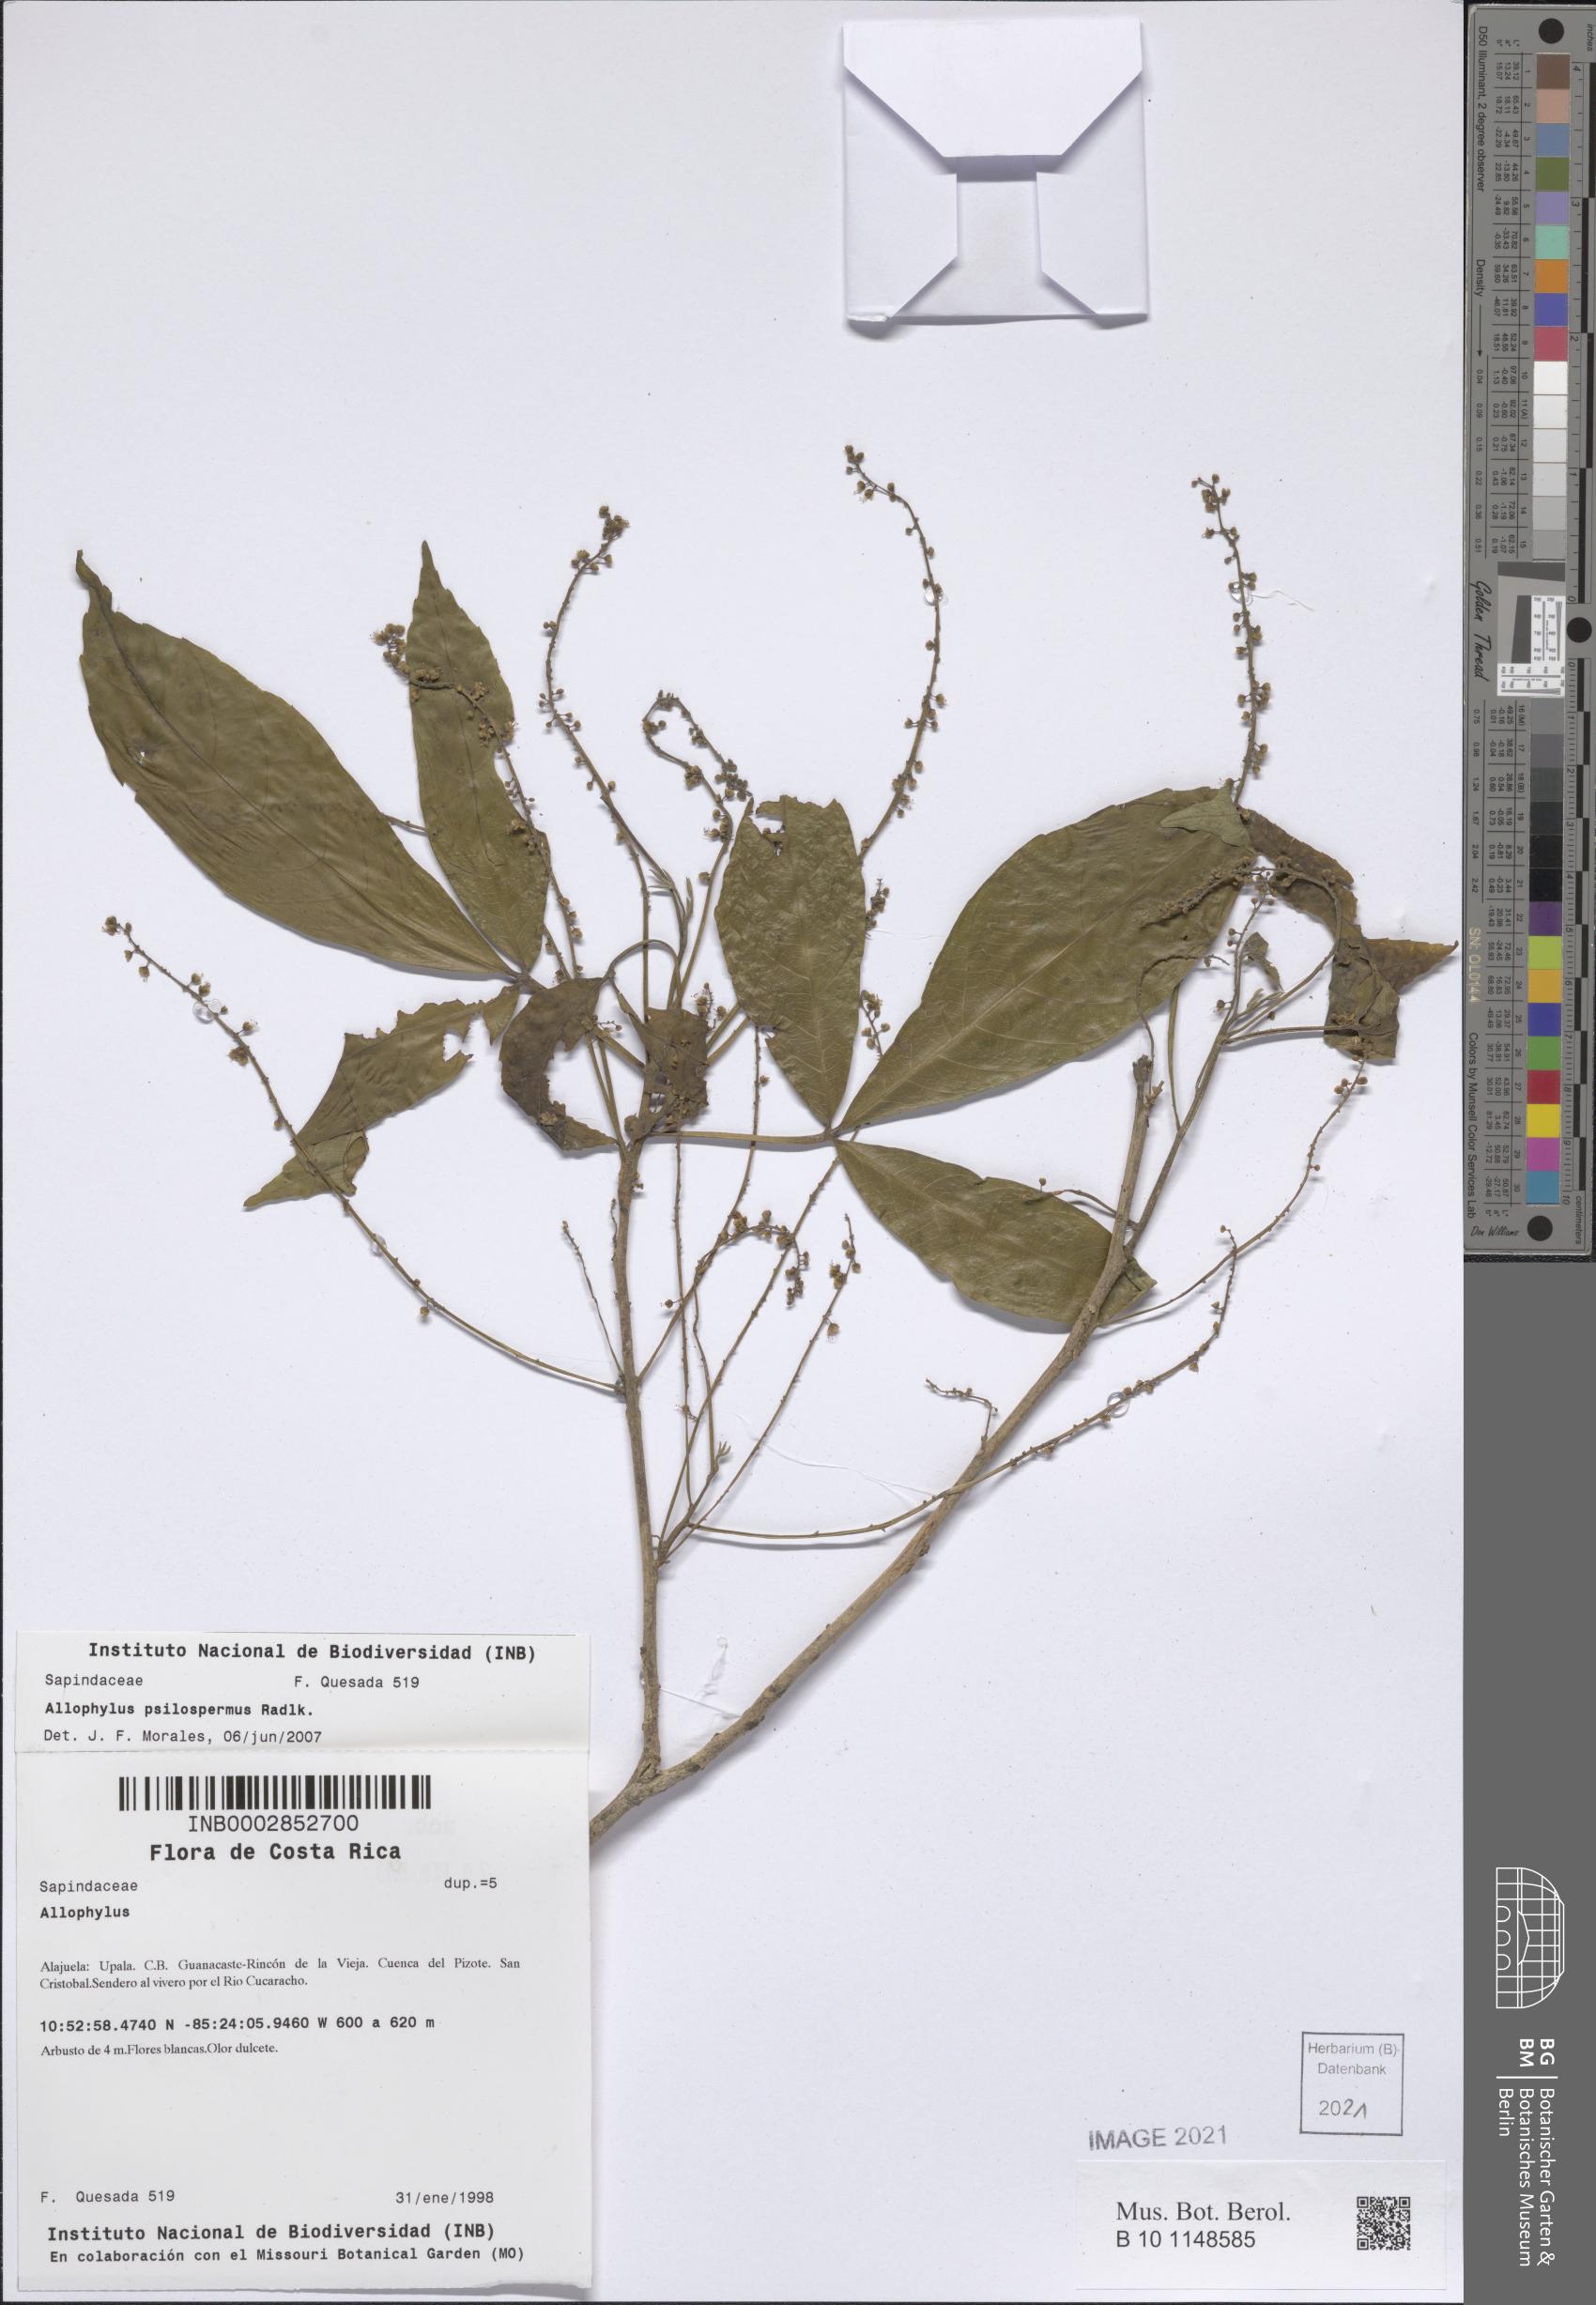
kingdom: Plantae
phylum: Tracheophyta
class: Magnoliopsida
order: Sapindales
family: Sapindaceae
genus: Allophylus
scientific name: Allophylus psilospermus
